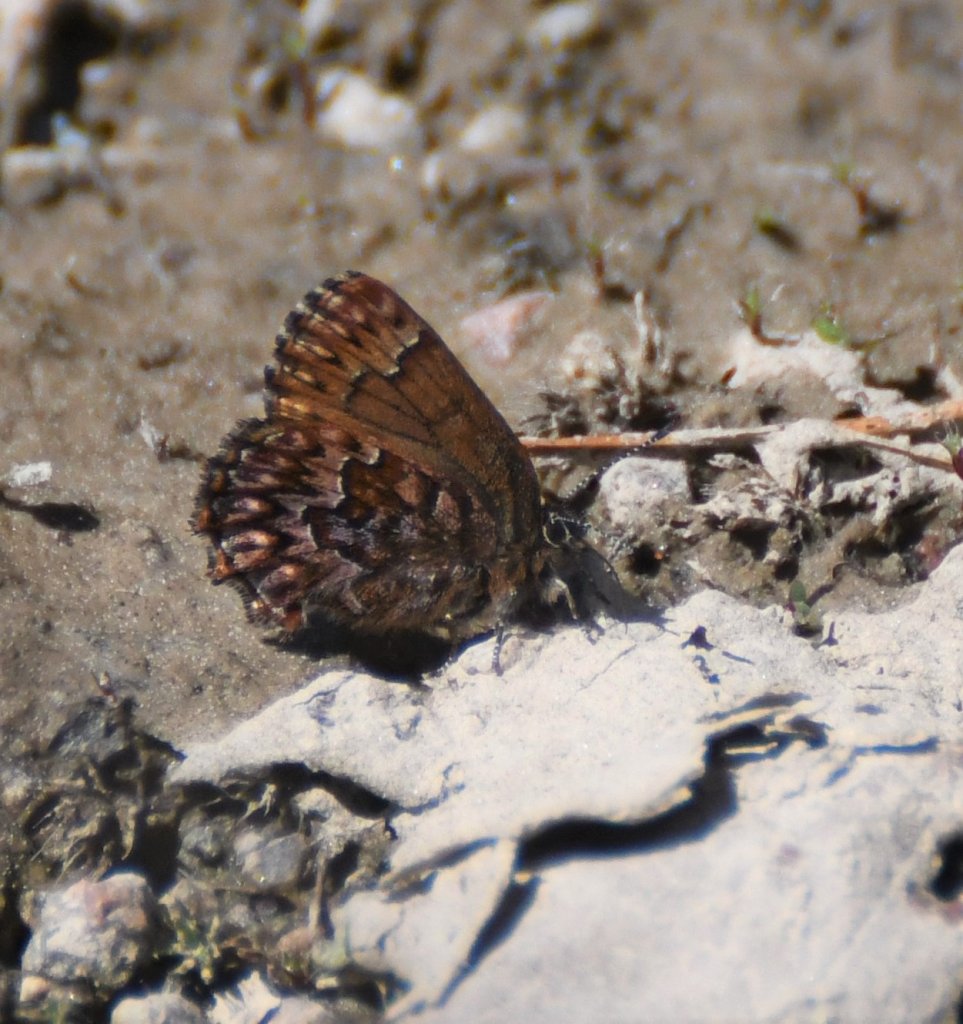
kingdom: Animalia
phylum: Arthropoda
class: Insecta
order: Lepidoptera
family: Lycaenidae
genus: Incisalia
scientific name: Incisalia eryphon
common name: Western Pine Elfin
